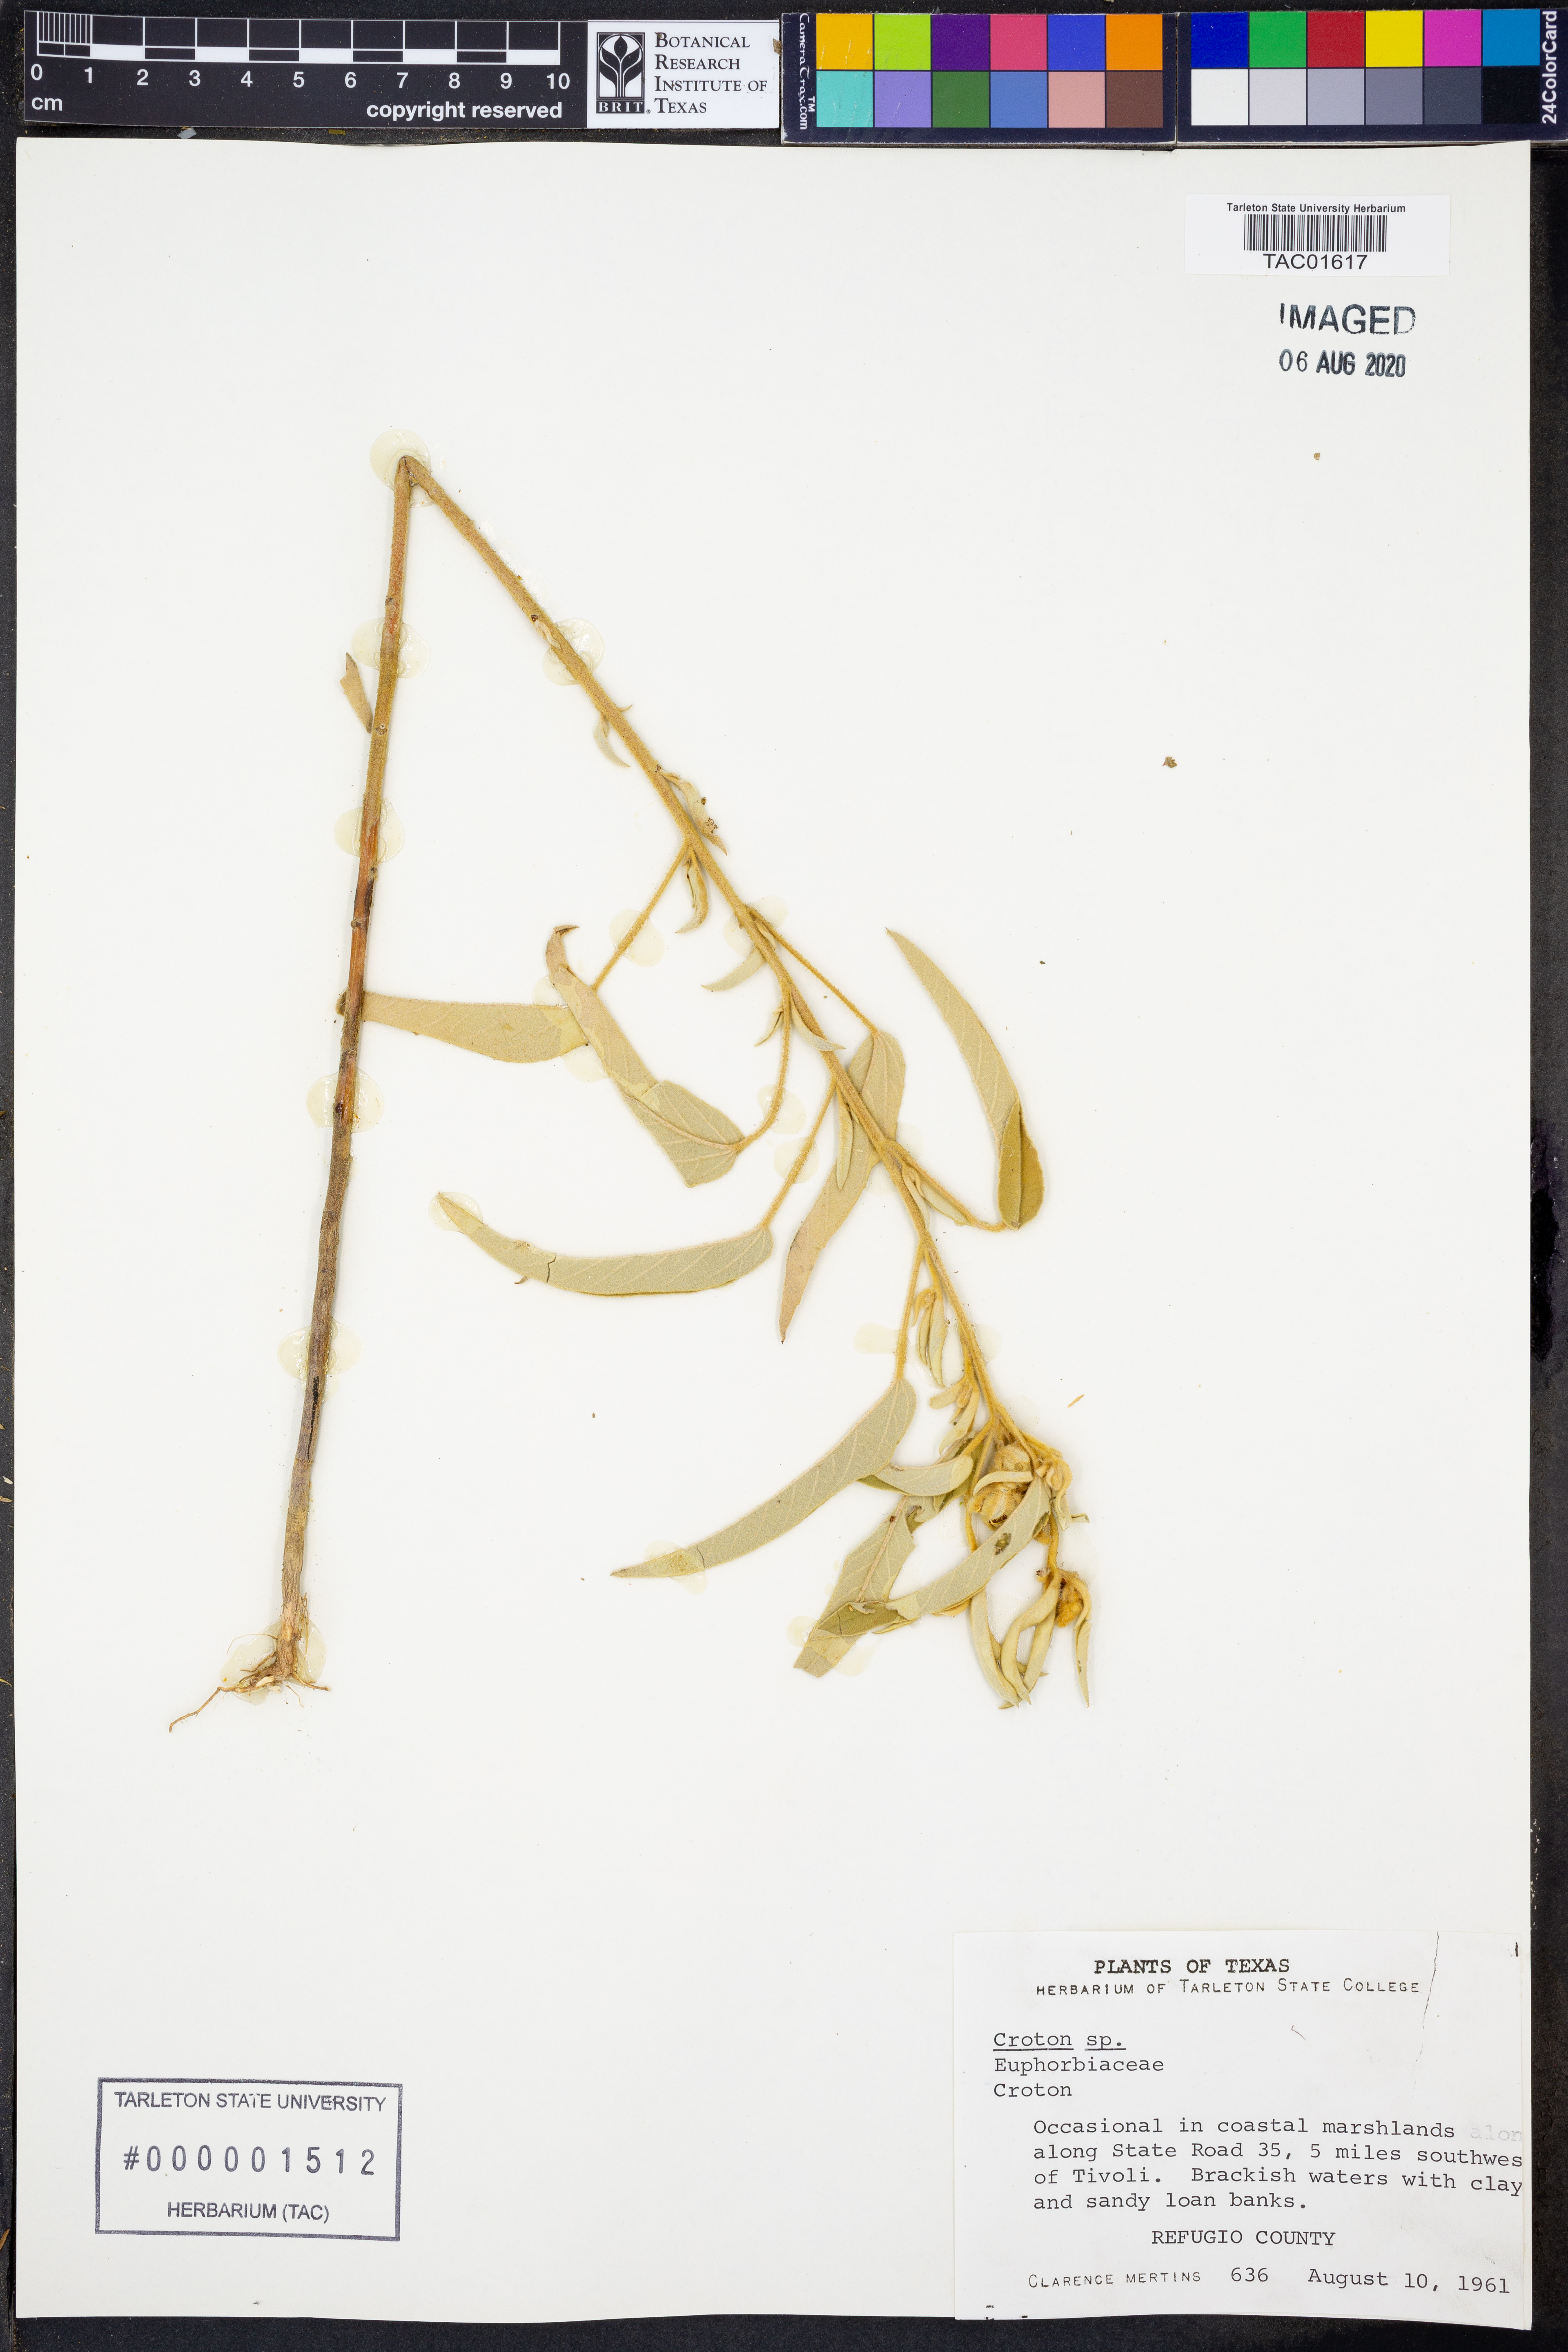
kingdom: Plantae
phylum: Tracheophyta
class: Magnoliopsida
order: Malpighiales
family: Euphorbiaceae
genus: Croton
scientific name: Croton
